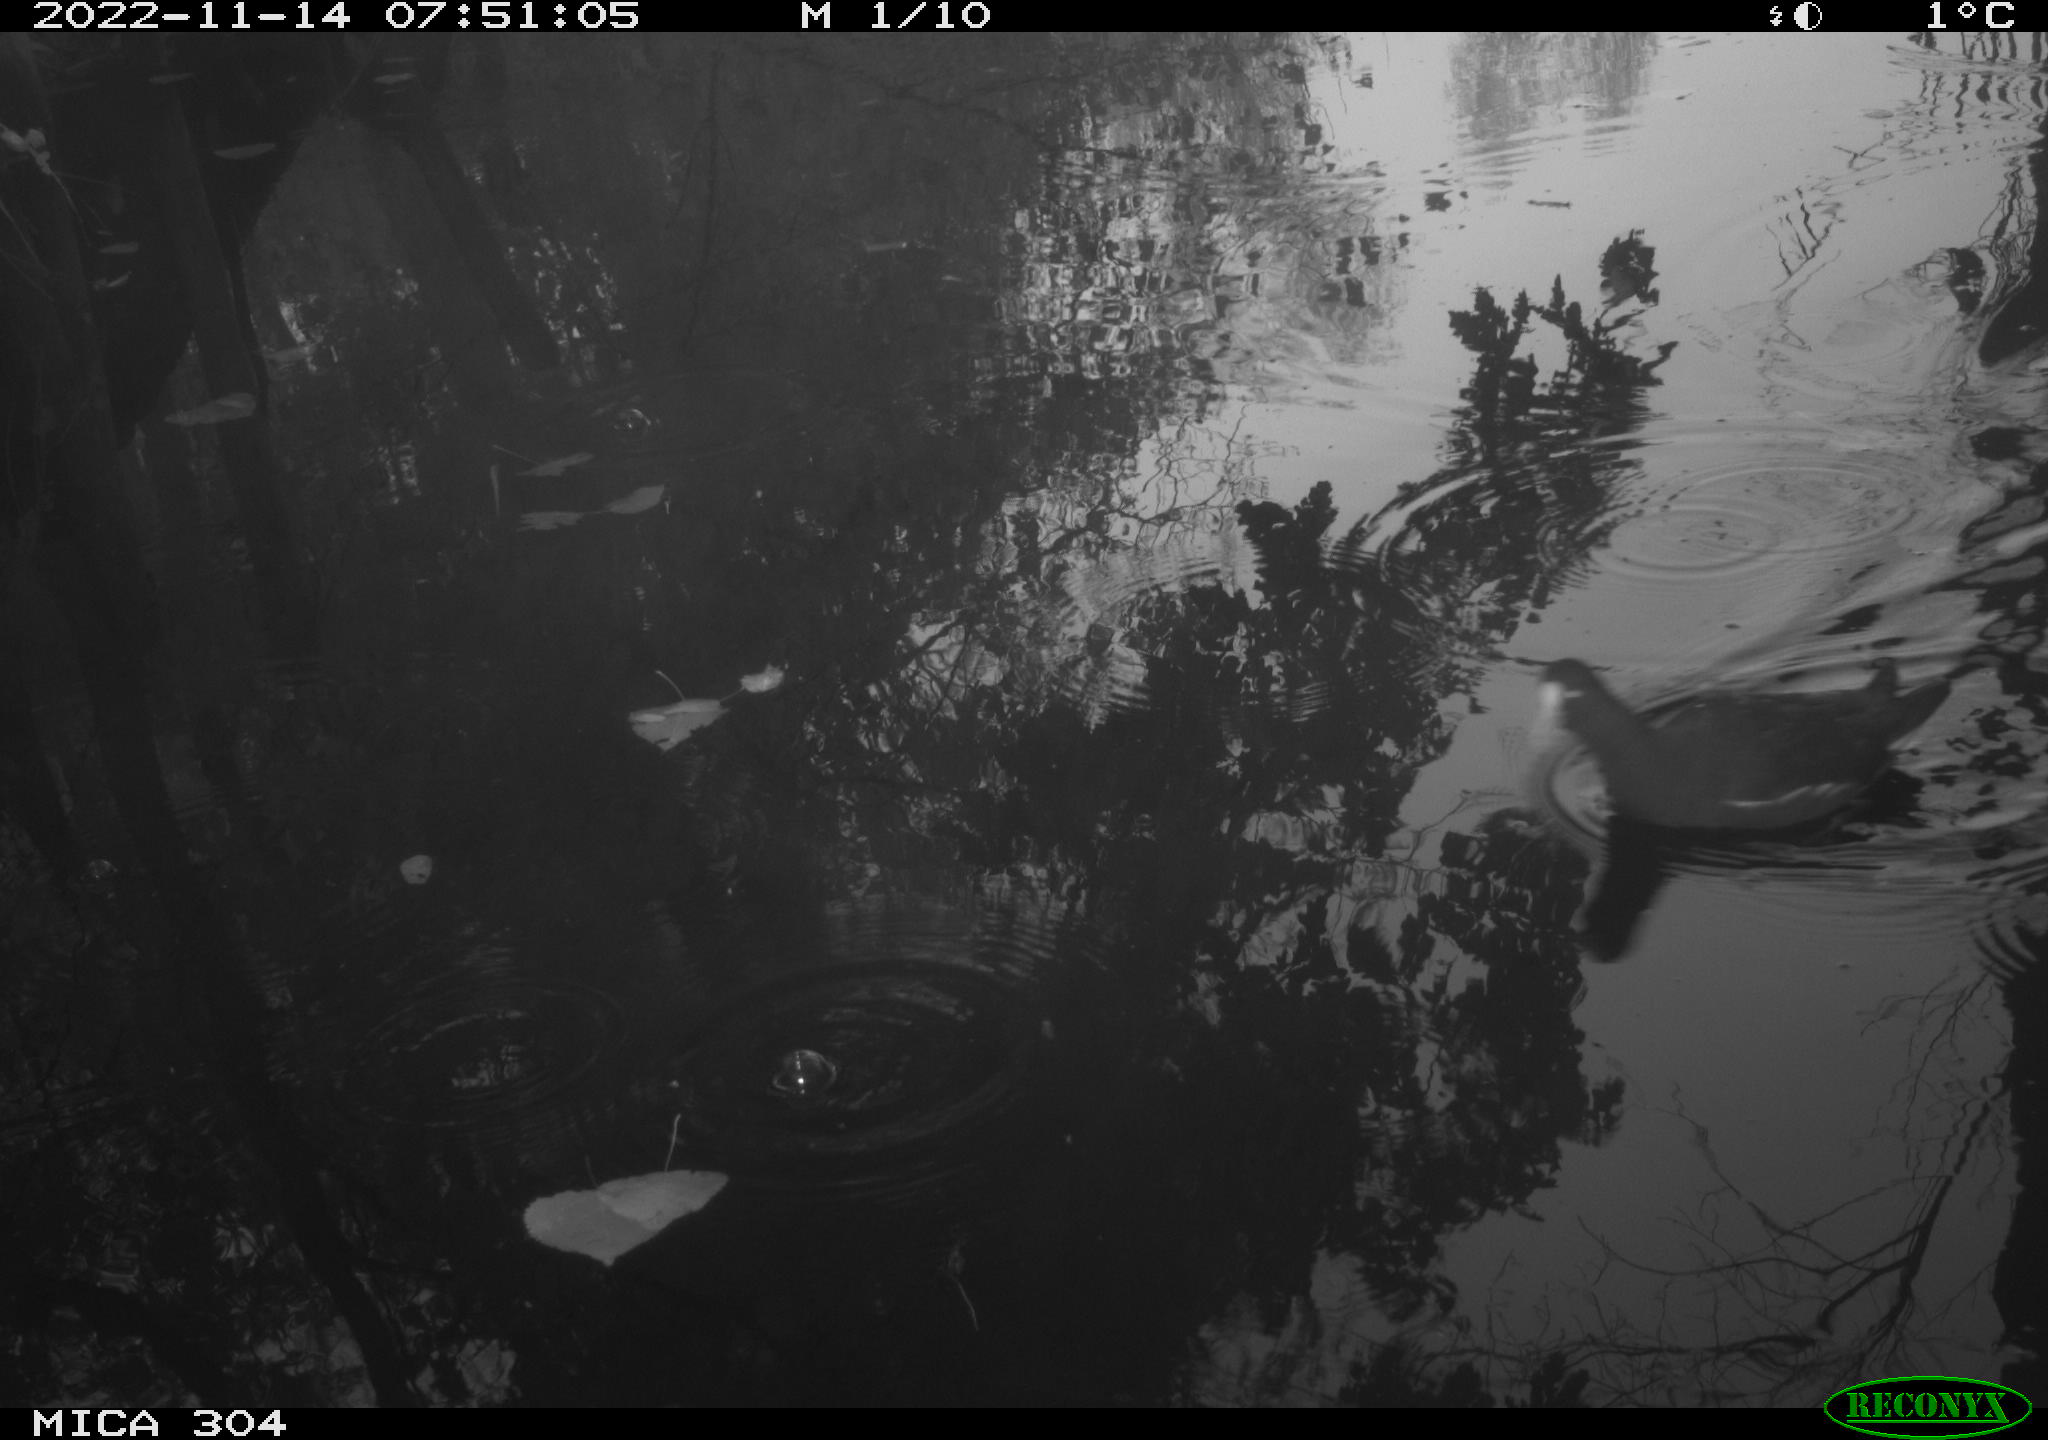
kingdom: Animalia
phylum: Chordata
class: Aves
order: Gruiformes
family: Rallidae
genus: Gallinula
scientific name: Gallinula chloropus
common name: Common moorhen
